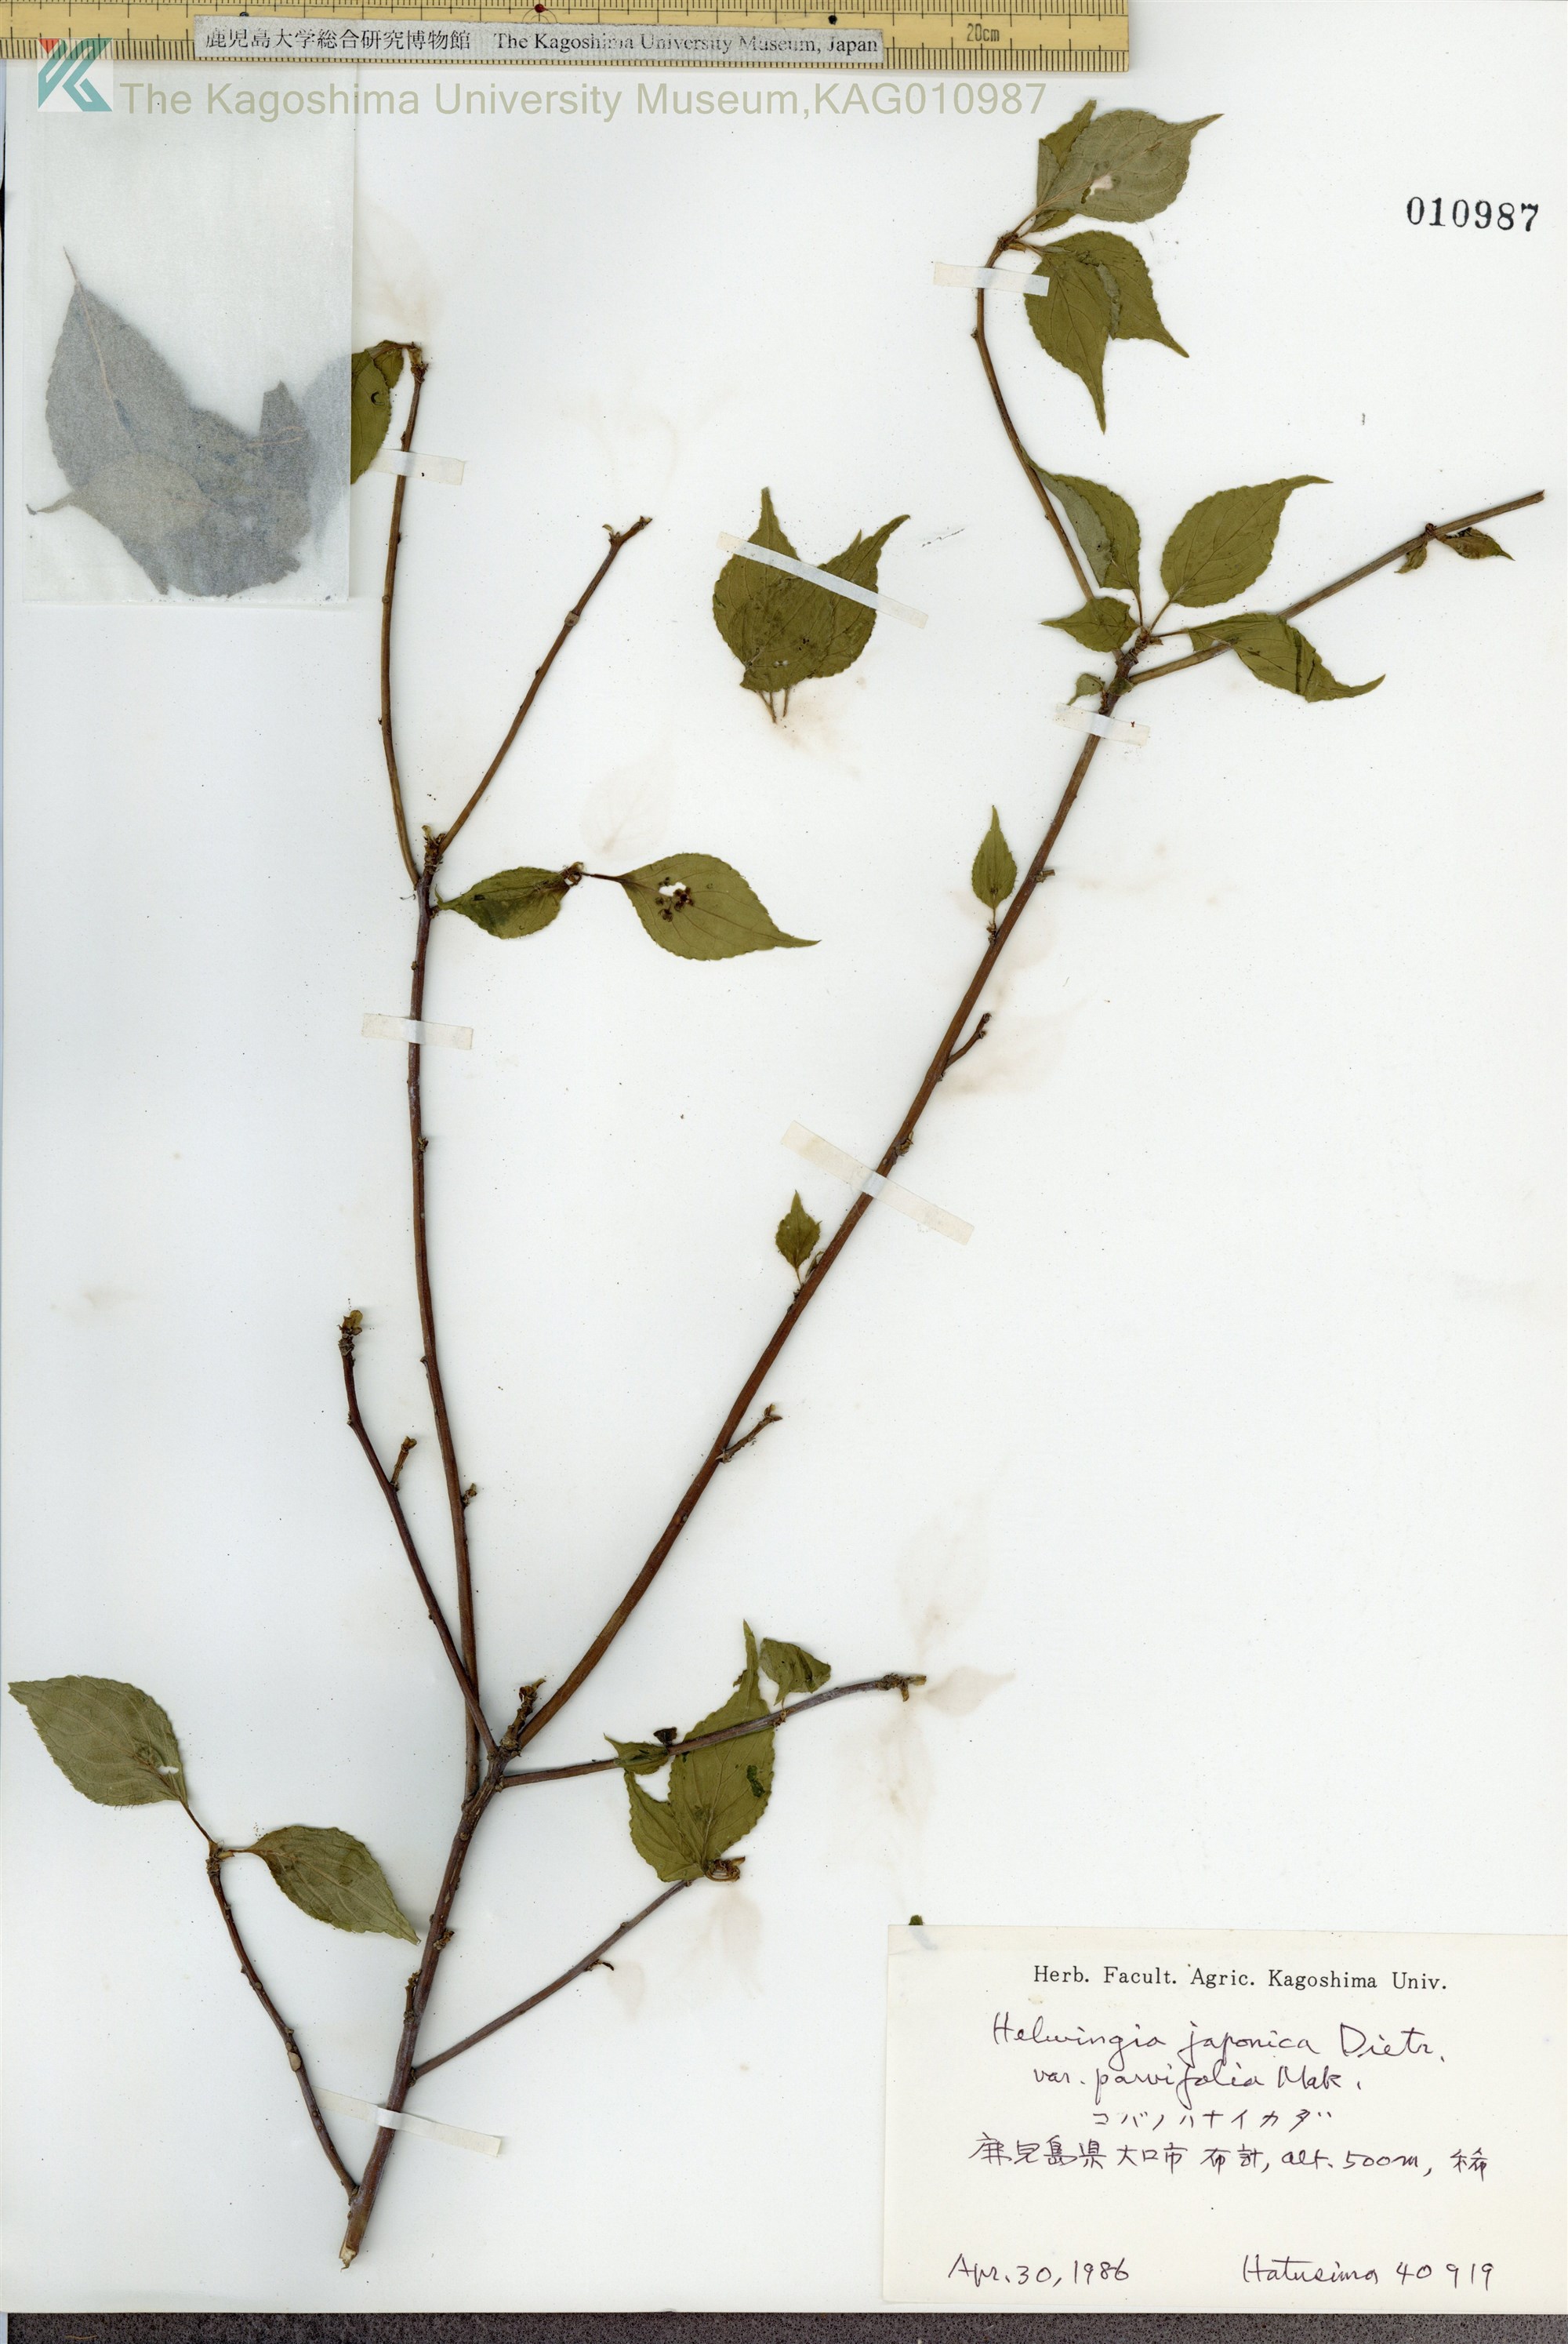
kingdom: Plantae
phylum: Tracheophyta
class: Magnoliopsida
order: Aquifoliales
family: Helwingiaceae
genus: Helwingia
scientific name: Helwingia japonica
